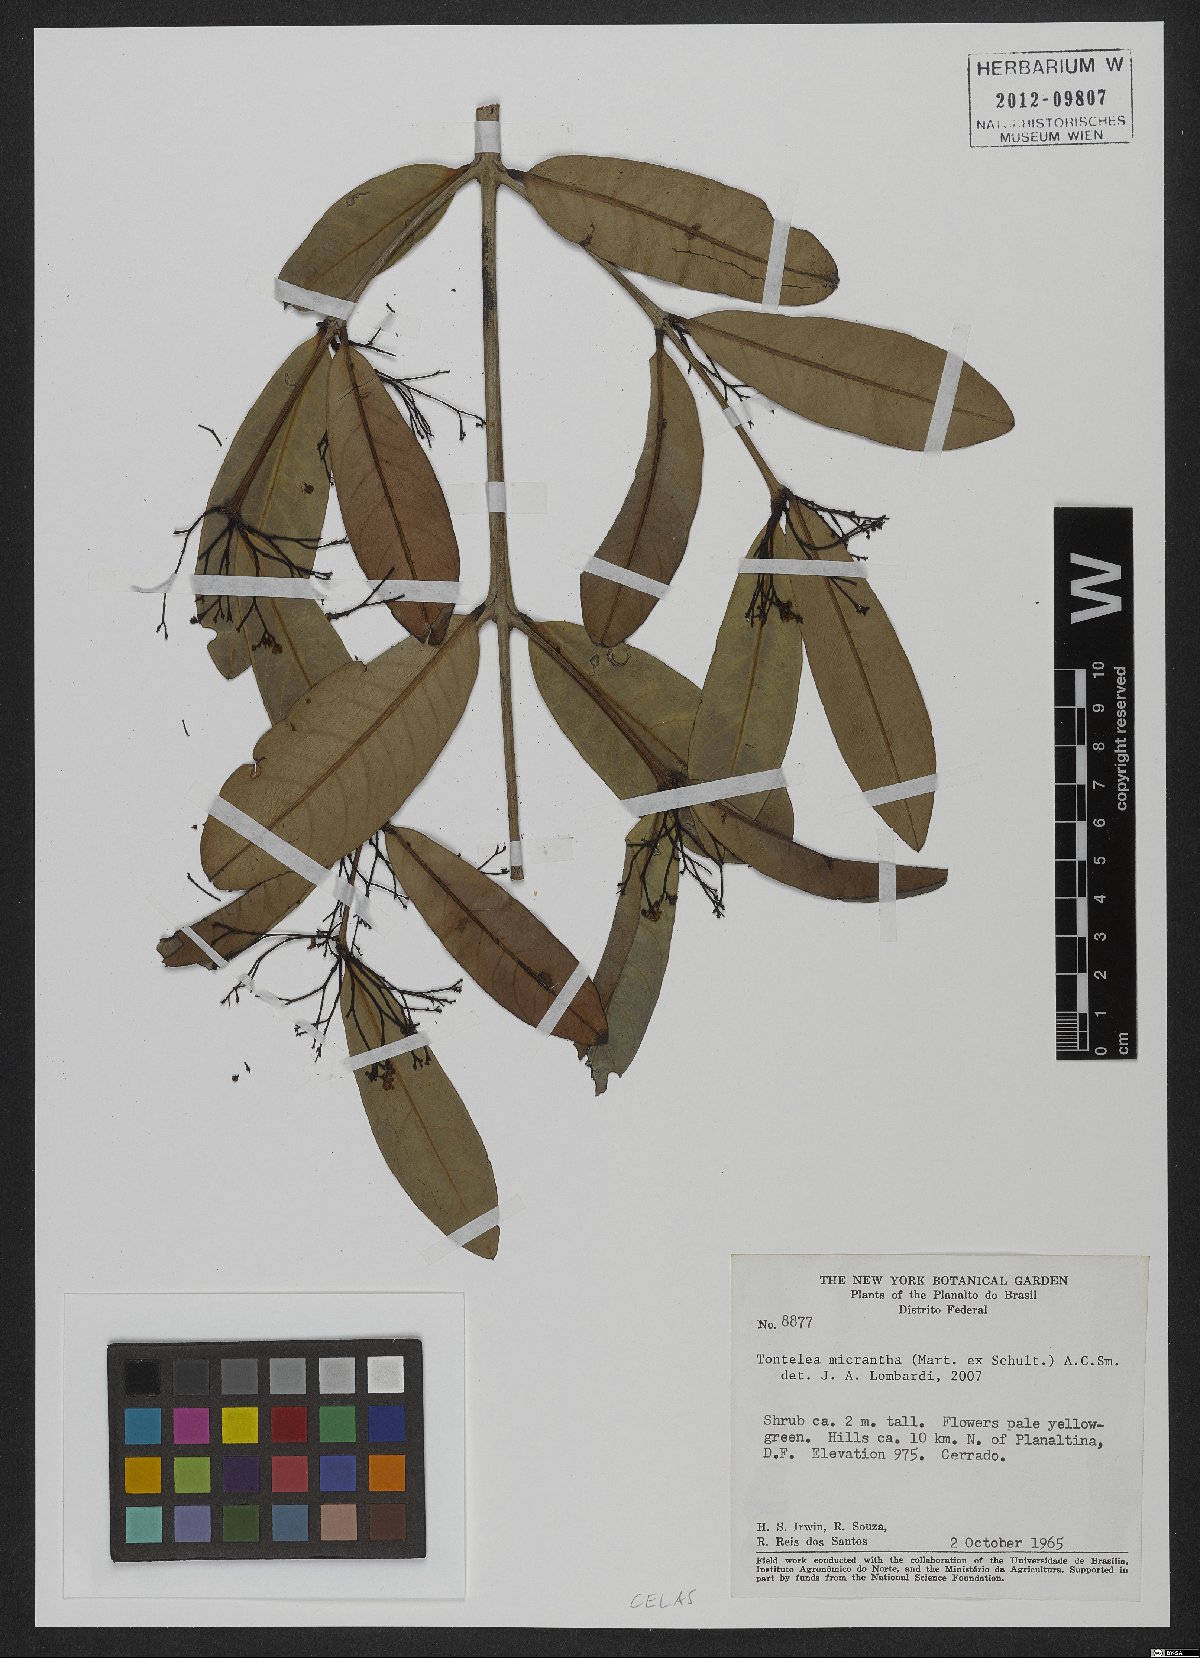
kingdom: Plantae
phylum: Tracheophyta
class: Magnoliopsida
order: Celastrales
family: Celastraceae
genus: Tontelea
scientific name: Tontelea micrantha
